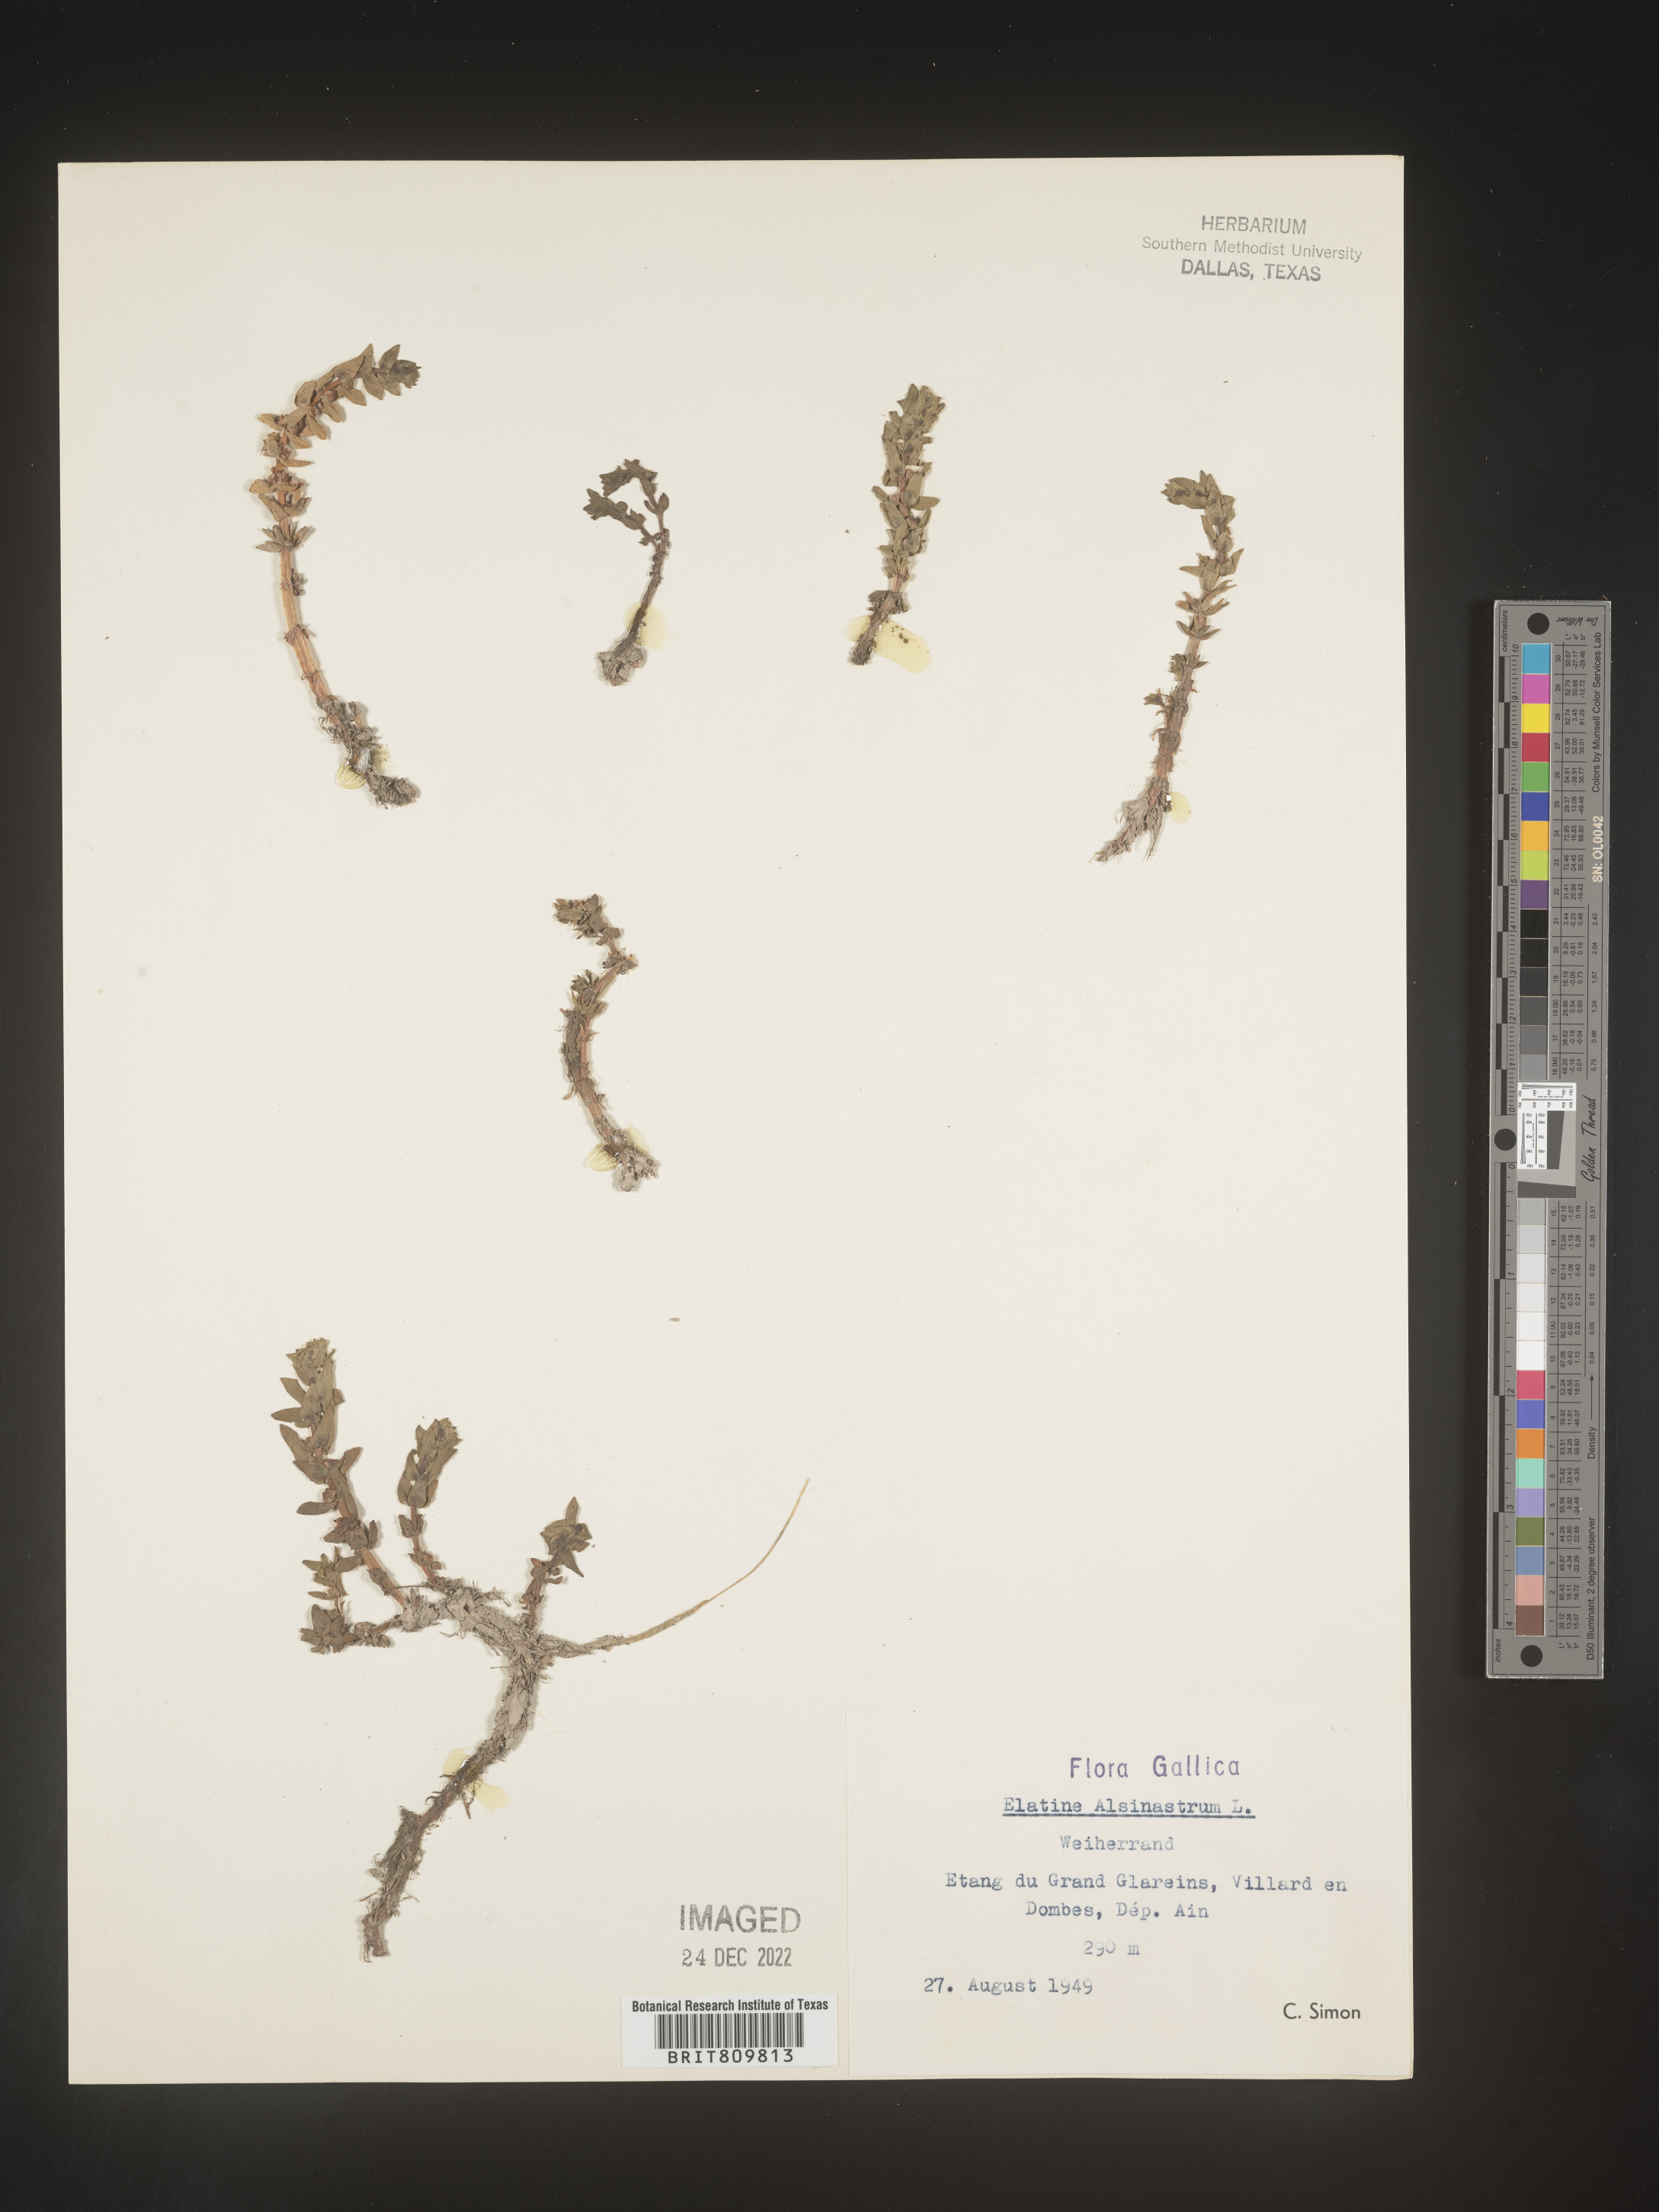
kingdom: Plantae
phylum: Tracheophyta
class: Magnoliopsida
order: Malpighiales
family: Elatinaceae
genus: Elatine
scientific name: Elatine
